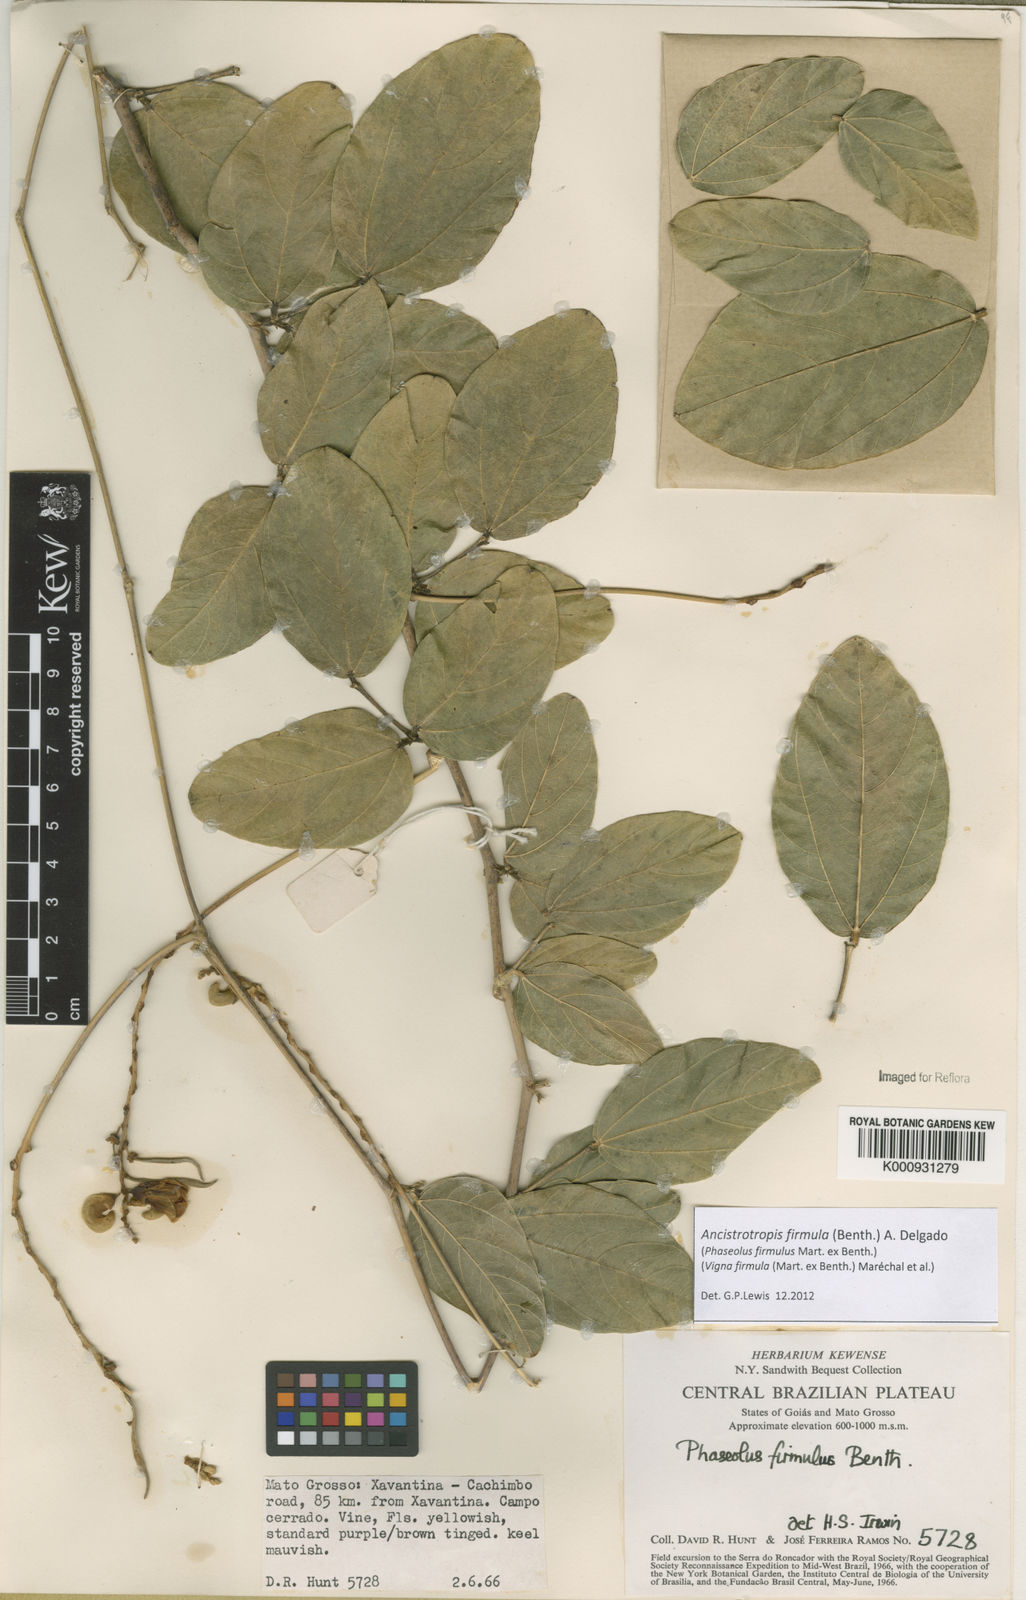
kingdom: Plantae
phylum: Tracheophyta
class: Magnoliopsida
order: Fabales
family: Fabaceae
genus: Ancistrotropis
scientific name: Ancistrotropis firmula
